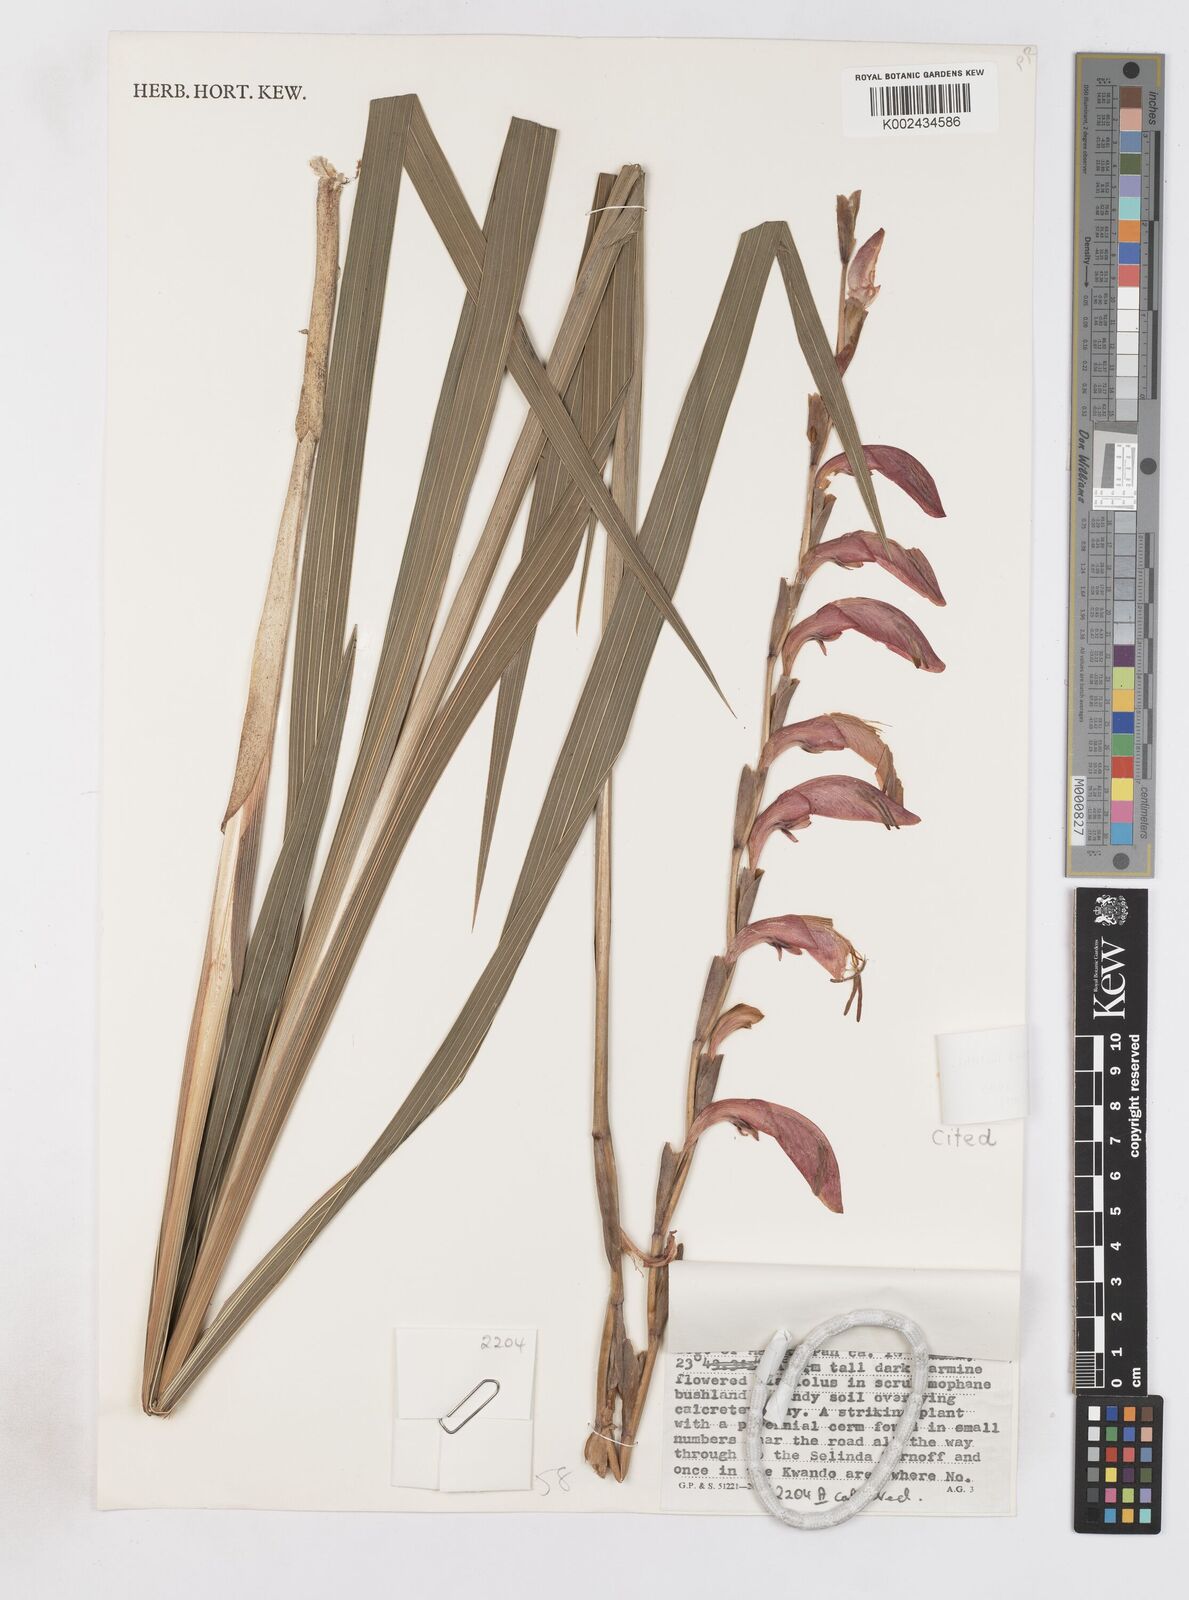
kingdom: Plantae
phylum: Tracheophyta
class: Liliopsida
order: Asparagales
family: Iridaceae
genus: Gladiolus
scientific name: Gladiolus magnificus
